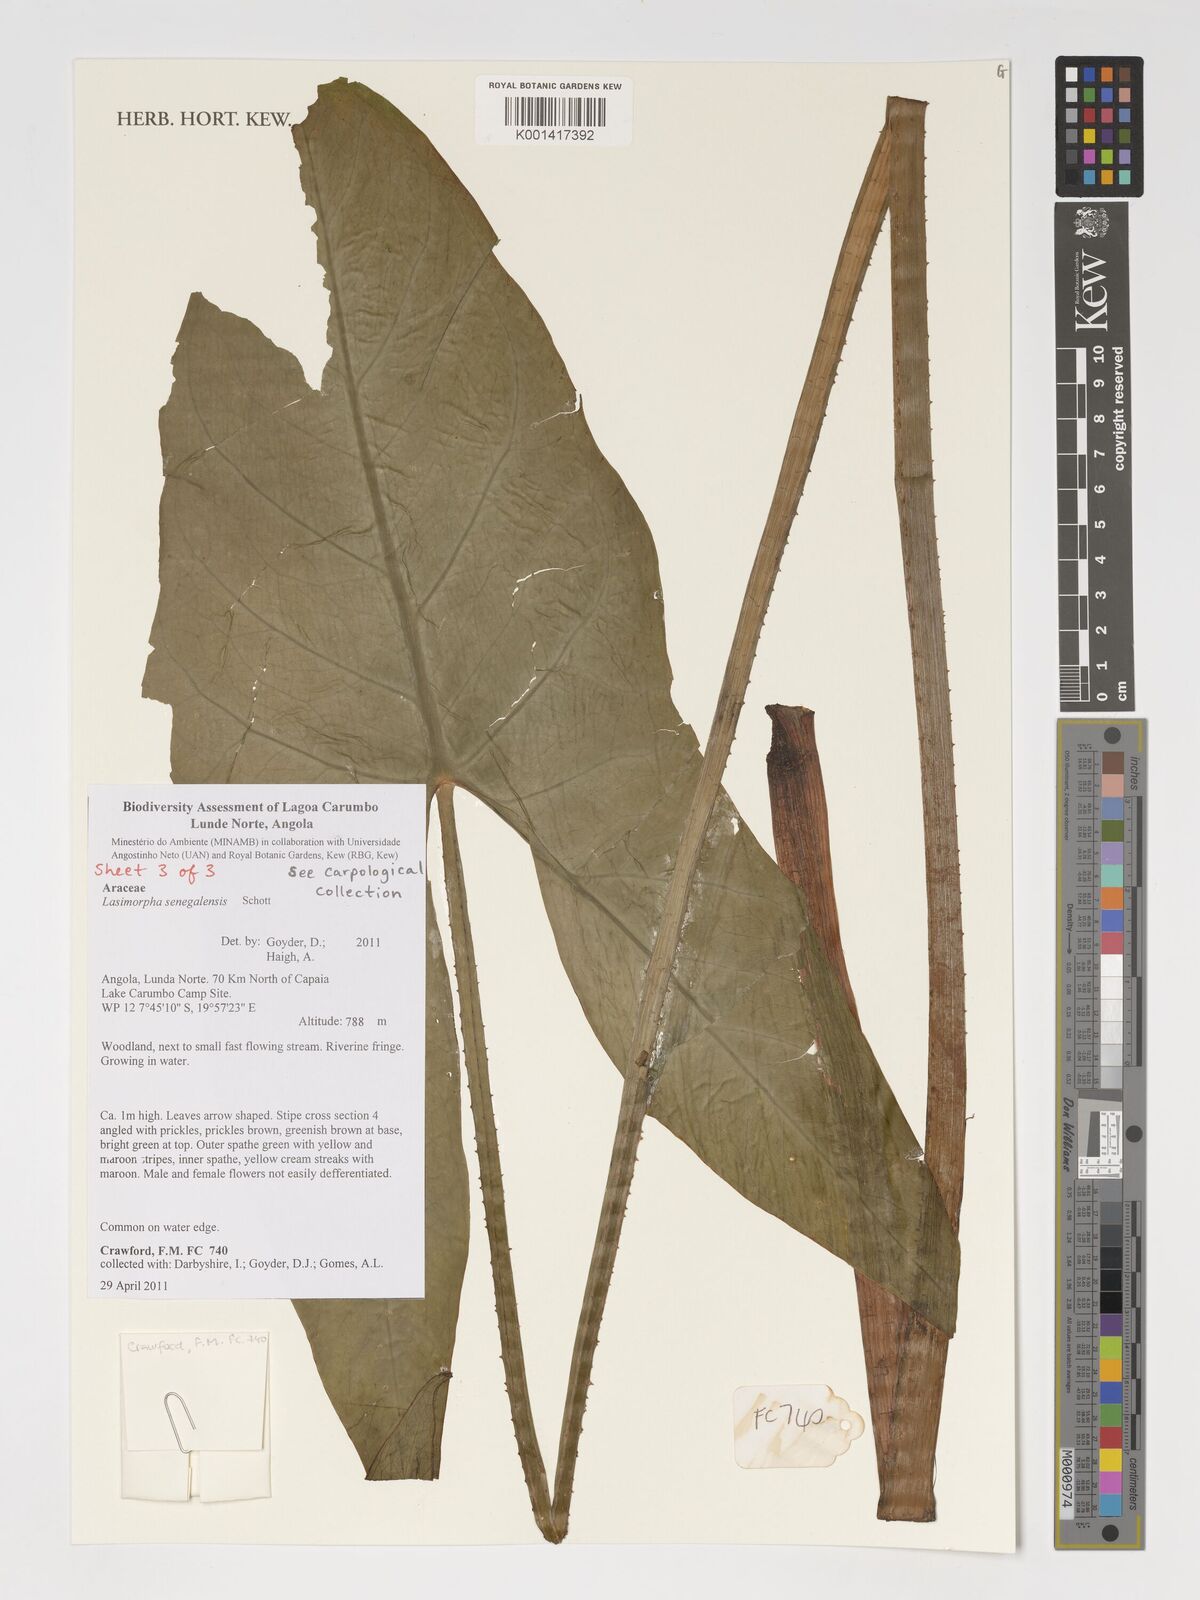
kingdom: Plantae
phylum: Tracheophyta
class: Liliopsida
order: Alismatales
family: Araceae
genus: Lasimorpha
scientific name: Lasimorpha senegalensis
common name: Swamp arum
